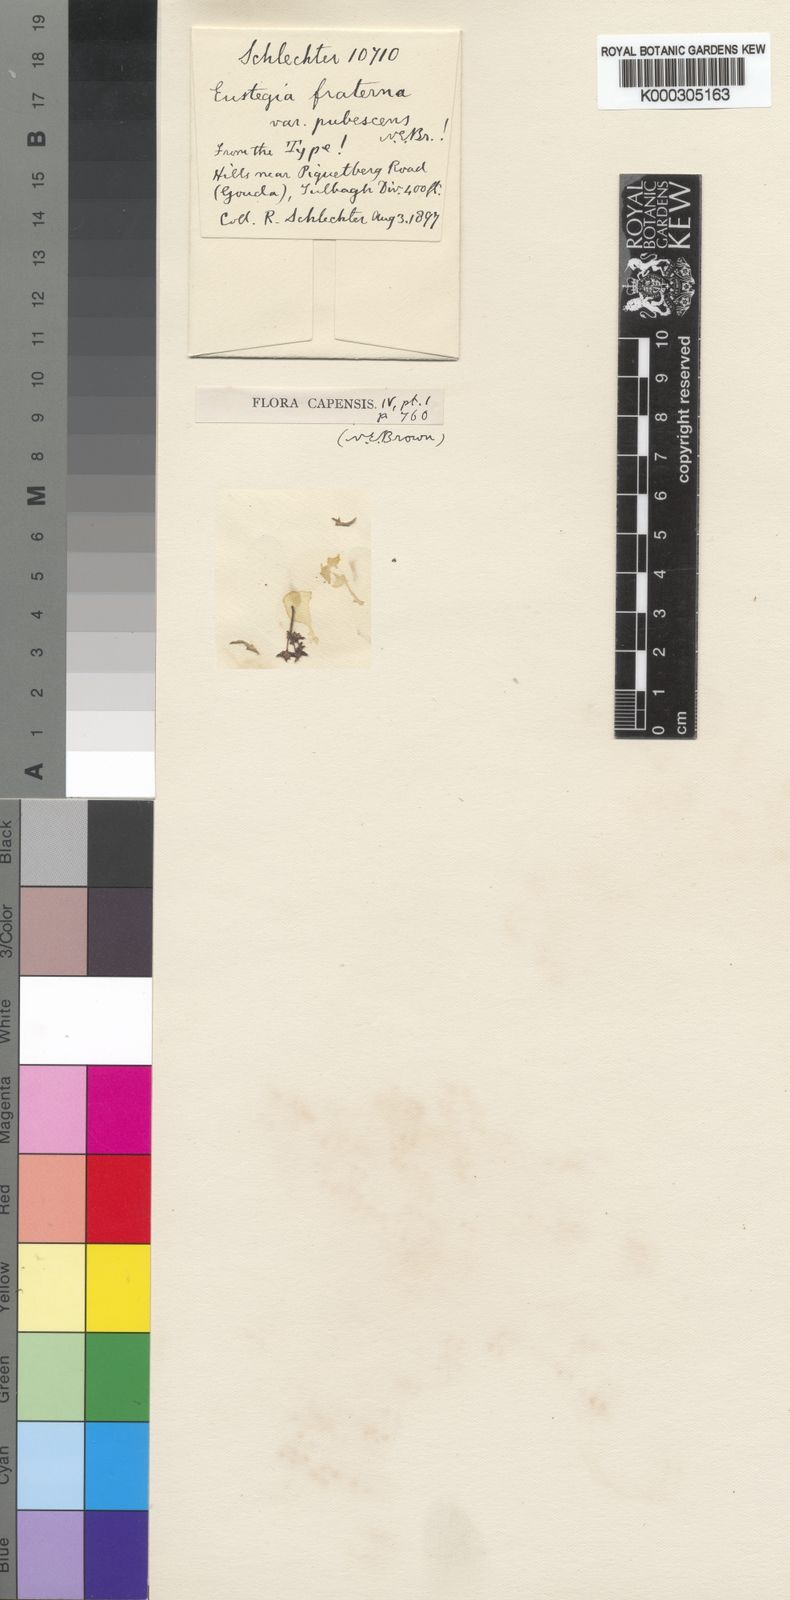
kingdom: Plantae
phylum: Tracheophyta
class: Magnoliopsida
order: Gentianales
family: Apocynaceae
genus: Eustegia
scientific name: Eustegia fraterna
